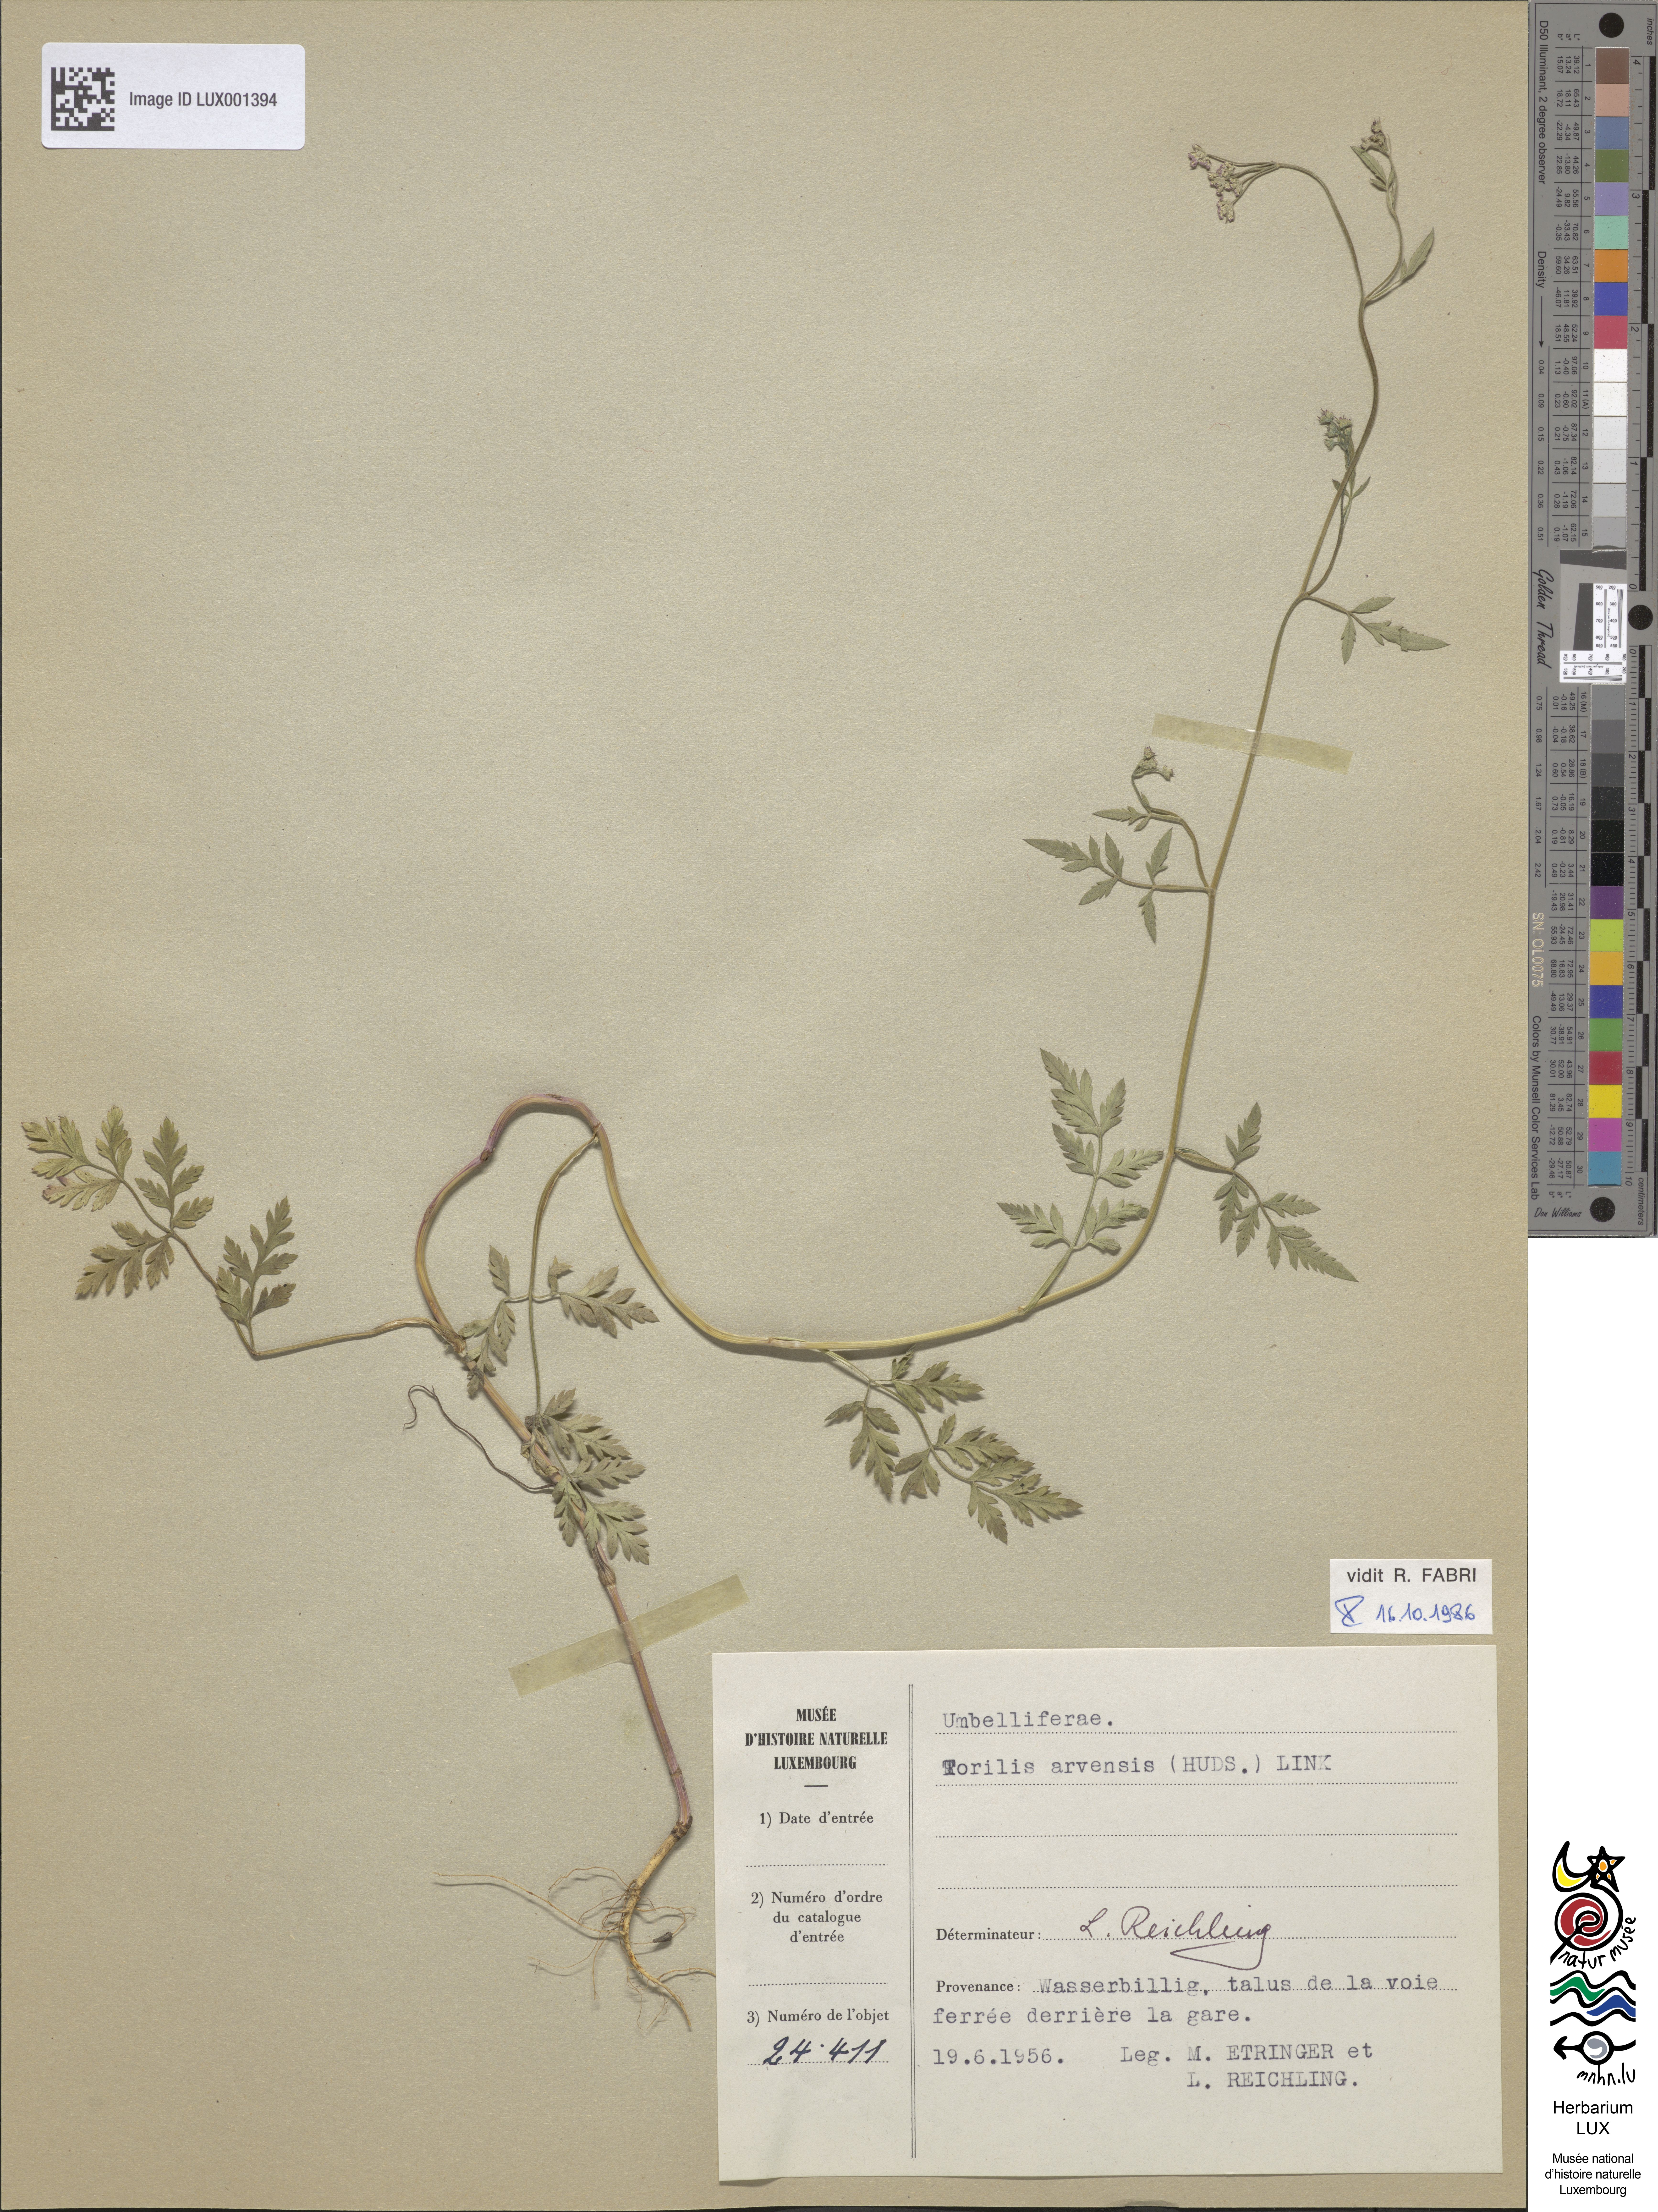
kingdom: Plantae
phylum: Tracheophyta
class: Magnoliopsida
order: Apiales
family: Apiaceae
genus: Torilis
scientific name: Torilis arvensis
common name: Spreading hedge-parsley
